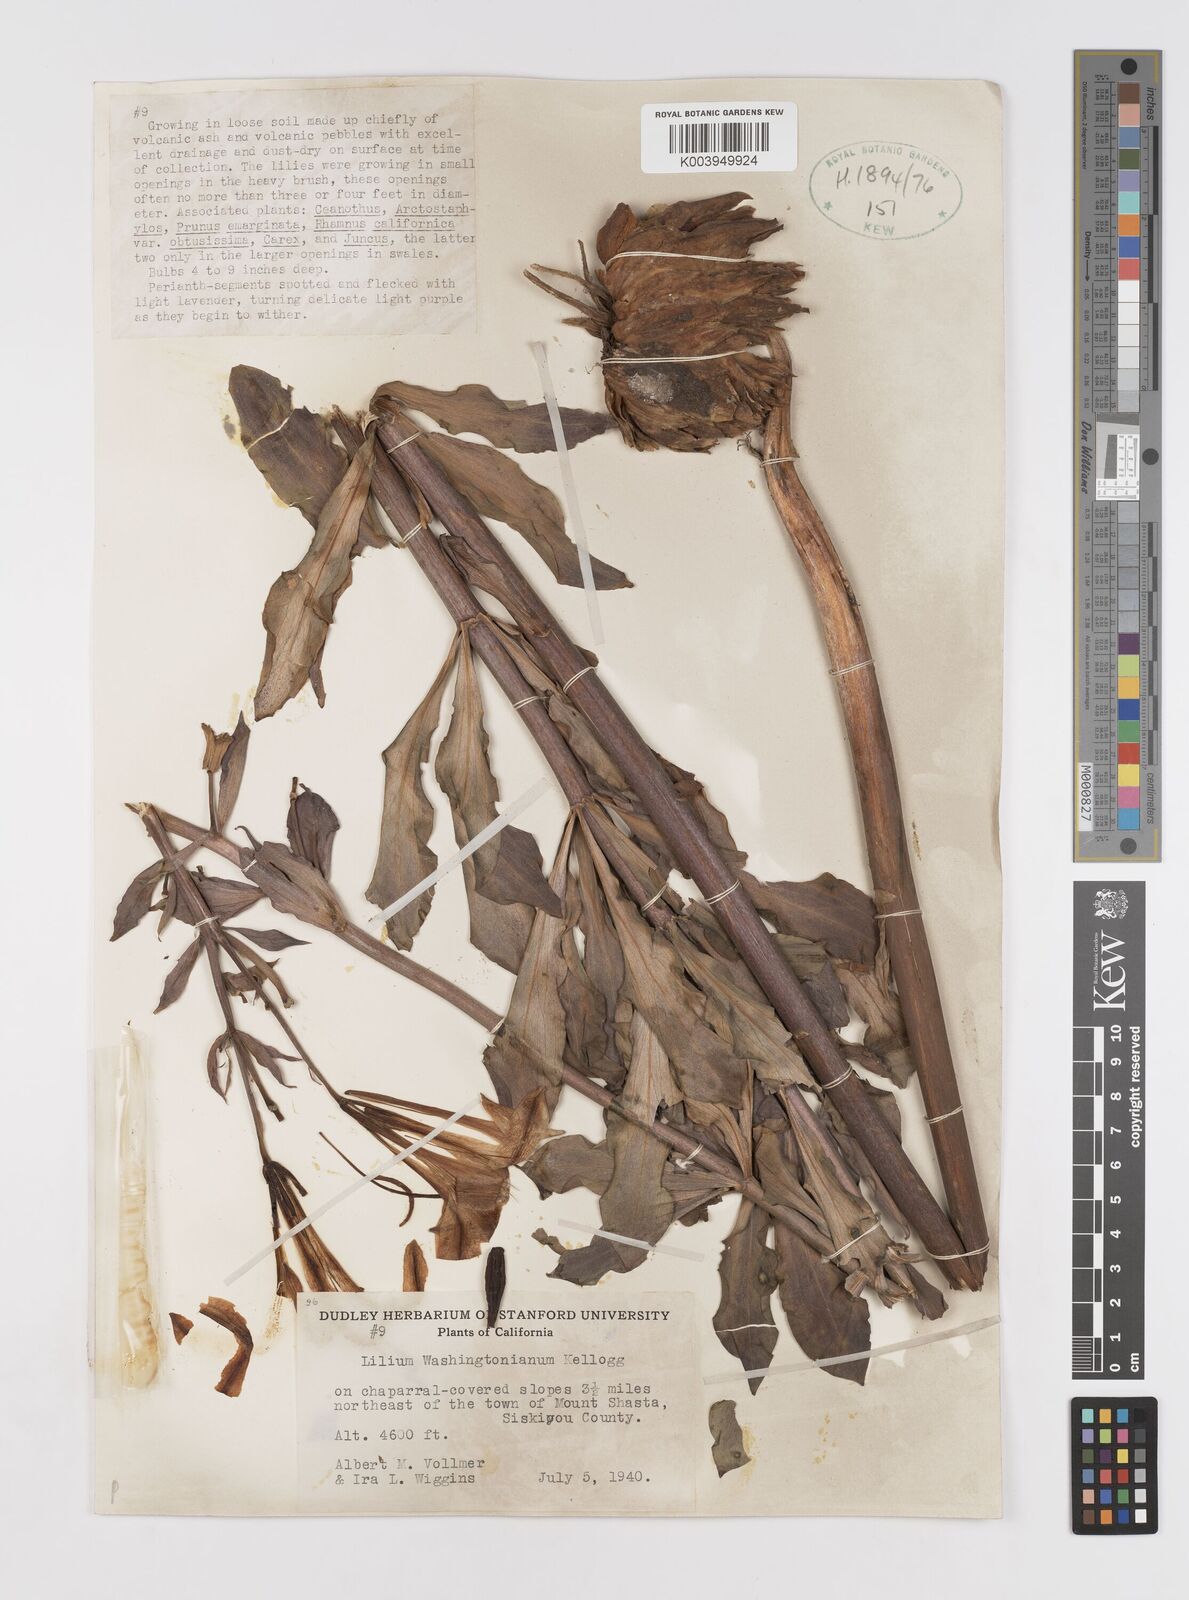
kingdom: Plantae
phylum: Tracheophyta
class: Liliopsida
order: Liliales
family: Liliaceae
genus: Lilium
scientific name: Lilium washingtonianum
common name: Washington lily
